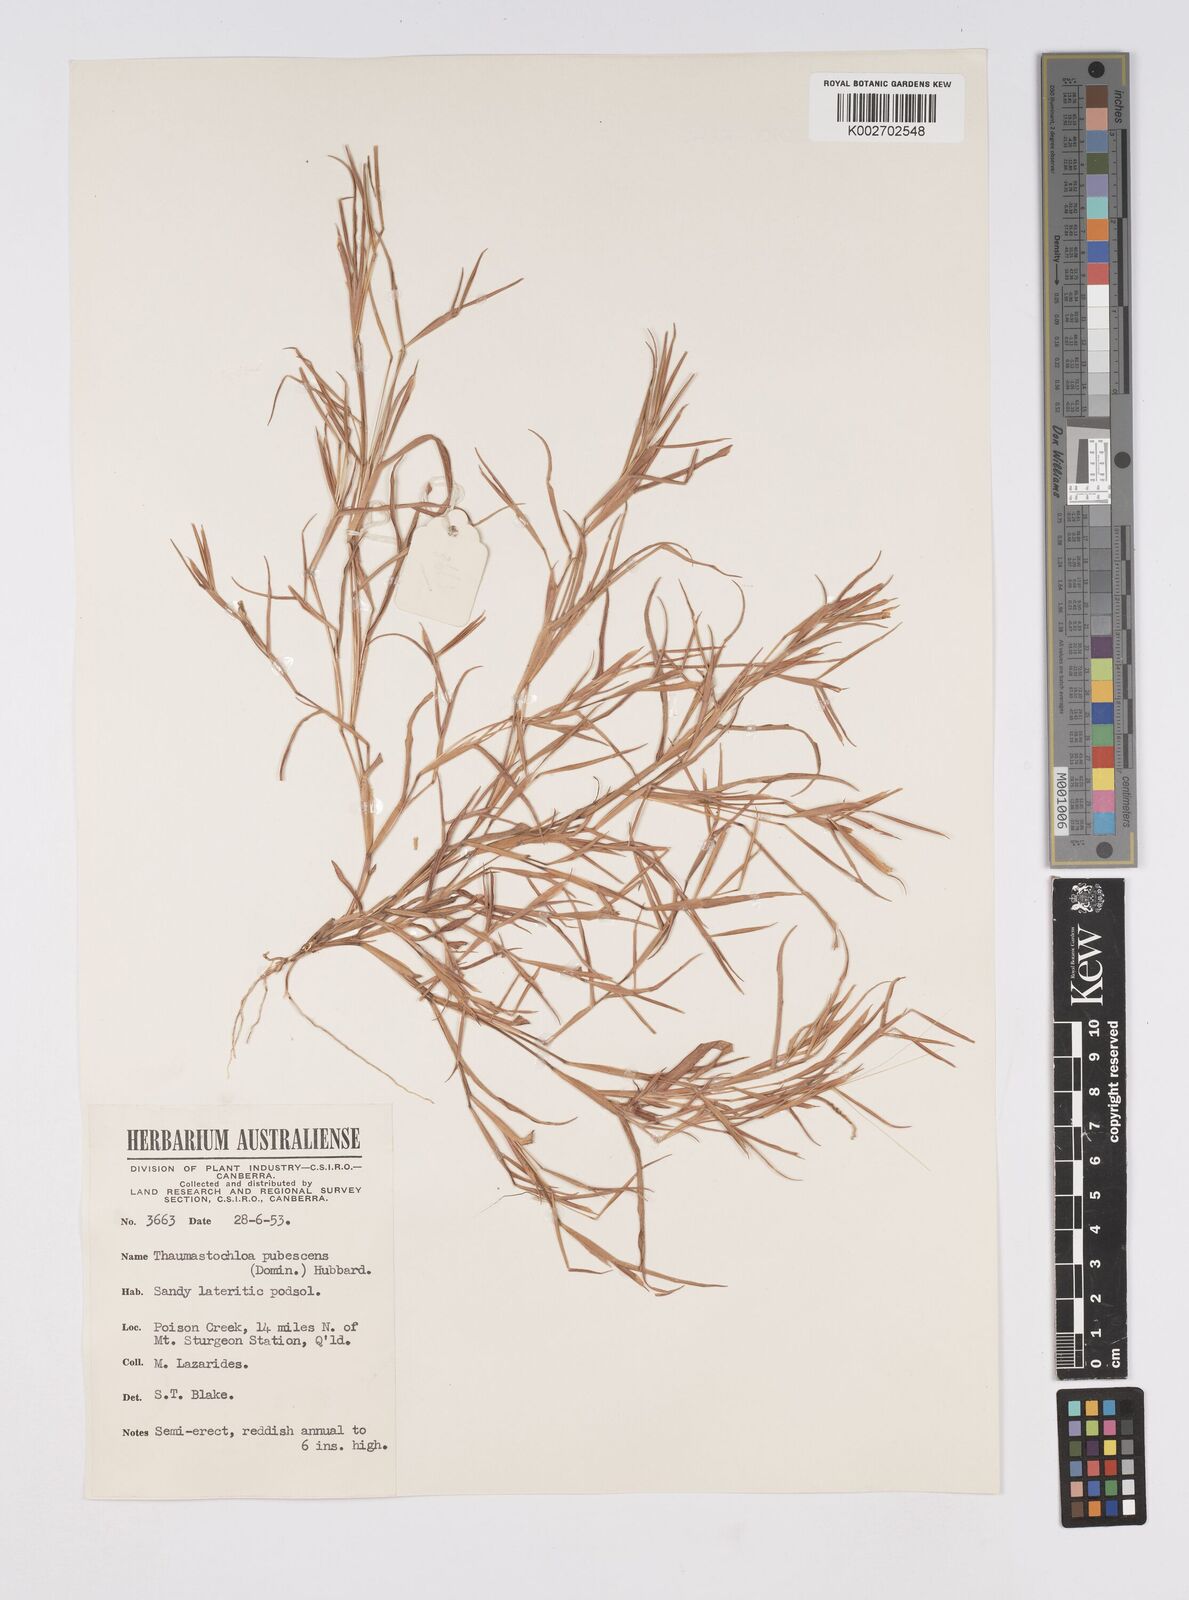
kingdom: Plantae
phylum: Tracheophyta
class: Liliopsida
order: Poales
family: Poaceae
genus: Thaumastochloa
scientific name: Thaumastochloa pubescens
